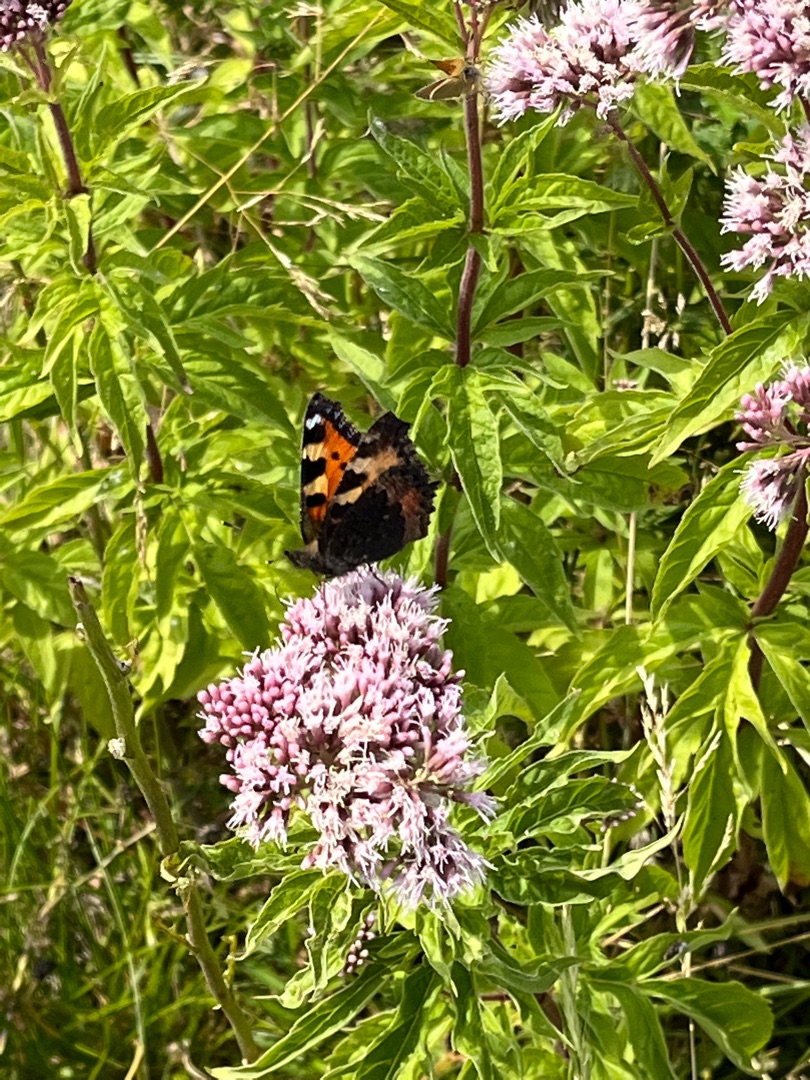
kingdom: Animalia
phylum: Arthropoda
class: Insecta
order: Lepidoptera
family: Nymphalidae
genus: Aglais
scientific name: Aglais urticae
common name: Nældens takvinge
